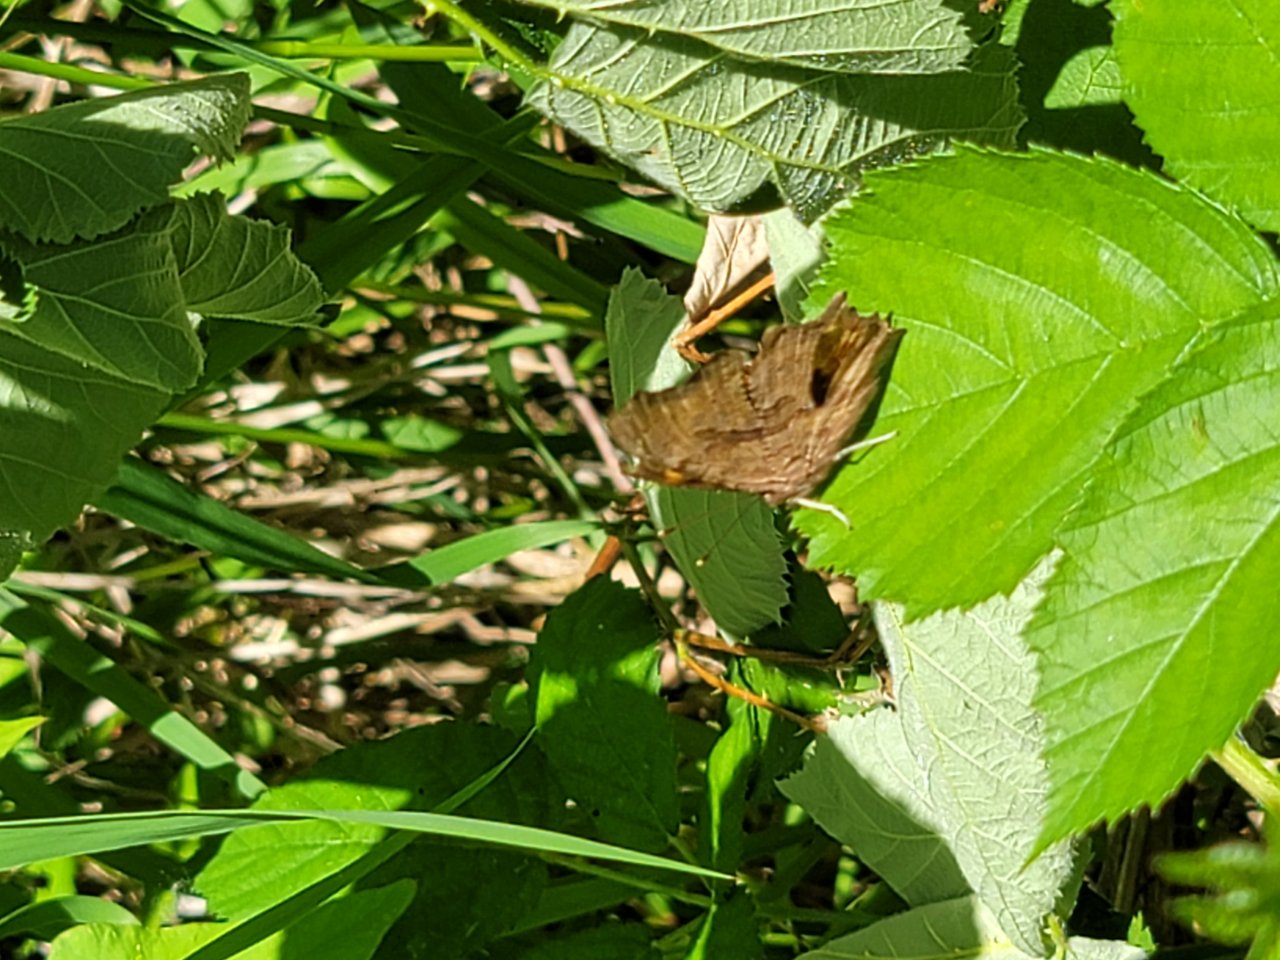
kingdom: Animalia
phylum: Arthropoda
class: Insecta
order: Lepidoptera
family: Nymphalidae
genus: Polygonia
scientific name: Polygonia satyrus
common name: Satyr Comma
